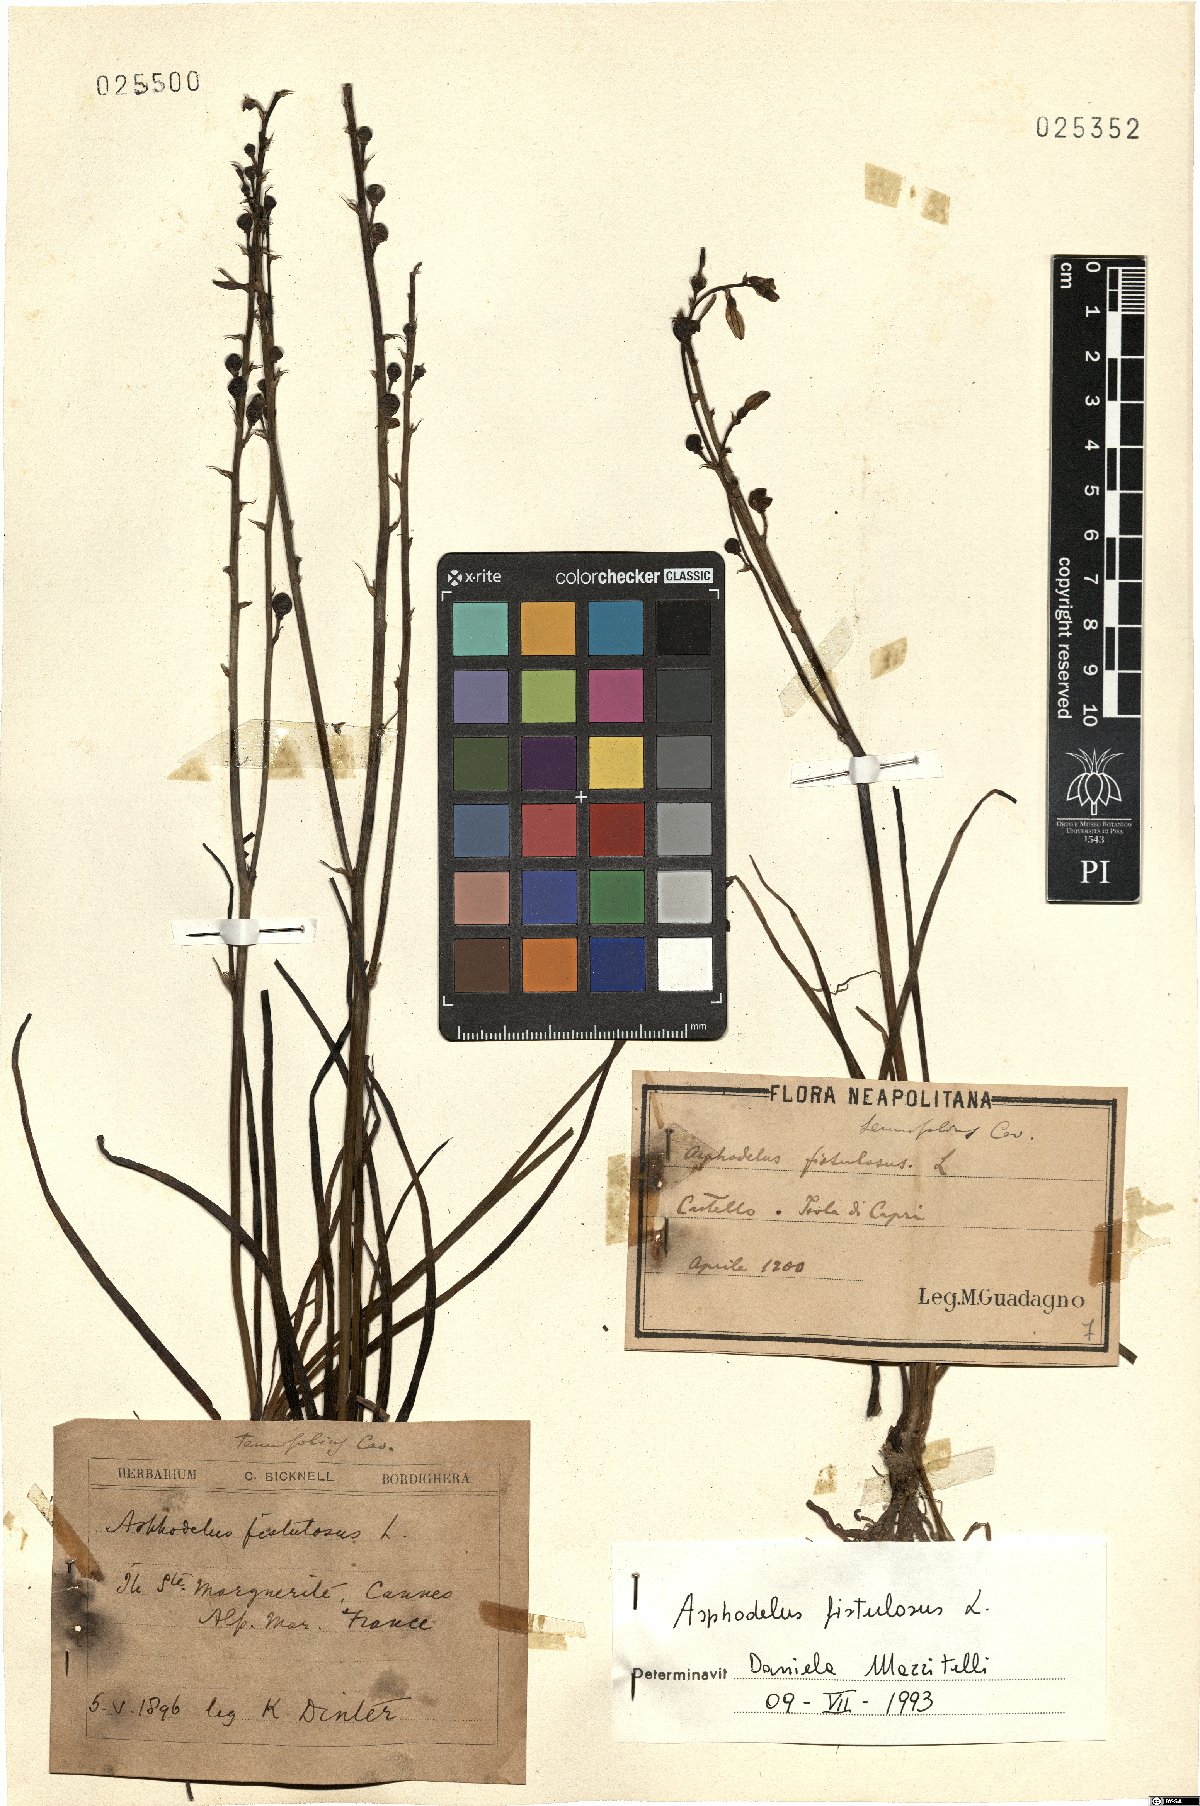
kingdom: Plantae
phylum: Tracheophyta
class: Liliopsida
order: Asparagales
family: Asphodelaceae
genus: Asphodelus
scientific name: Asphodelus fistulosus
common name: Onionweed
